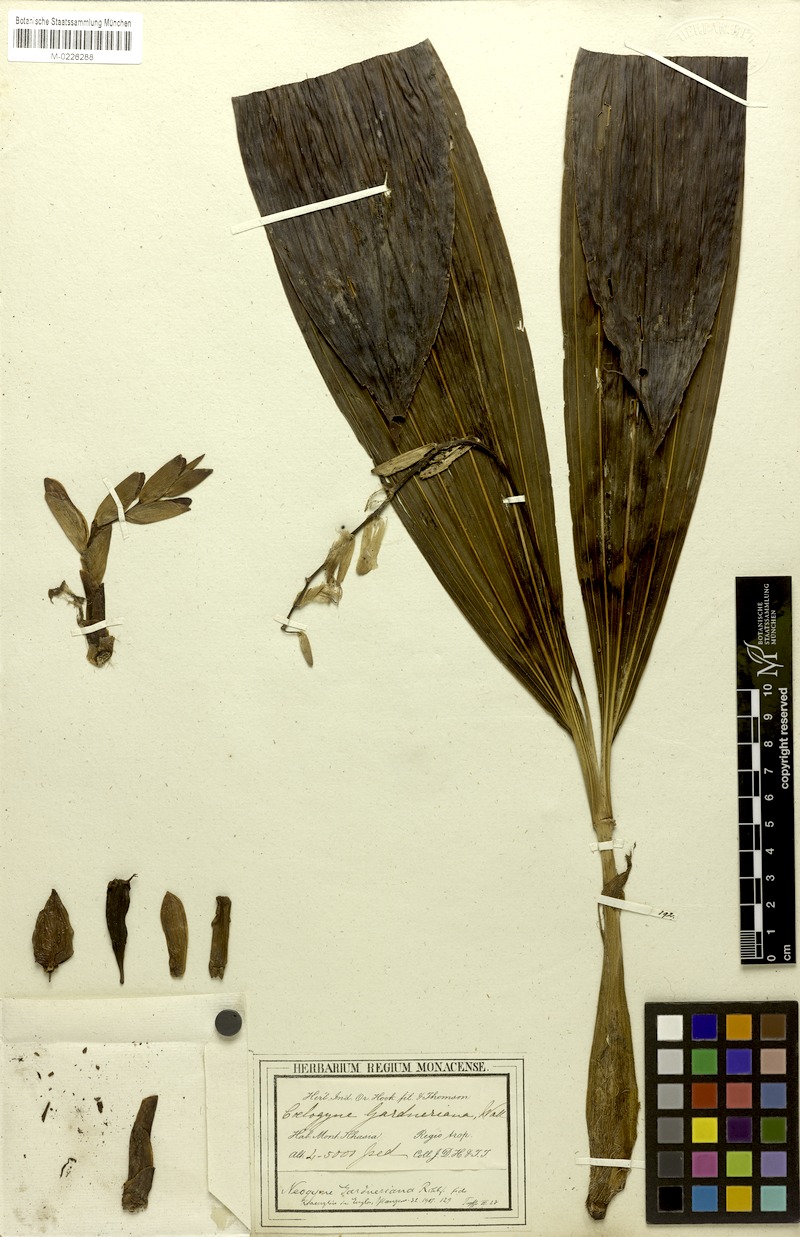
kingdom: Plantae
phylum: Tracheophyta
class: Liliopsida
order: Asparagales
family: Orchidaceae
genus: Coelogyne
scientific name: Coelogyne gardneriana
